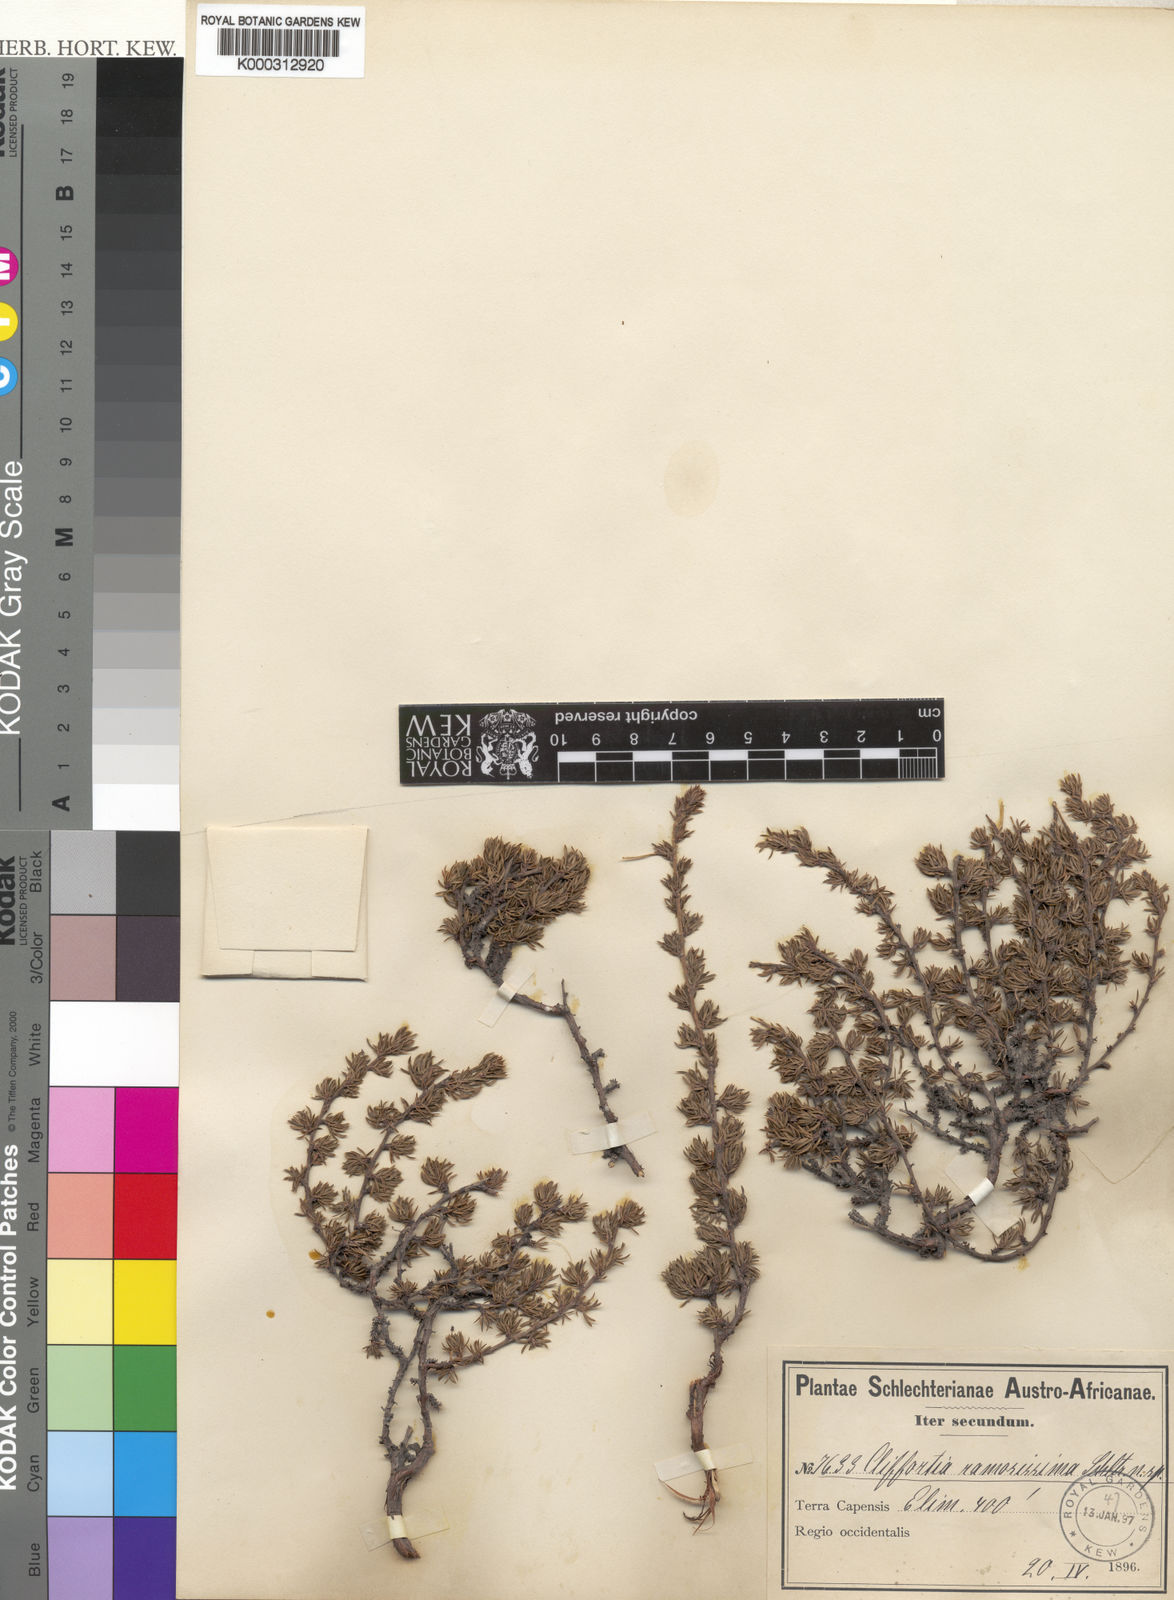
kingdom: Plantae
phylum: Tracheophyta
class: Magnoliopsida
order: Rosales
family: Rosaceae
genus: Cliffortia
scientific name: Cliffortia ramosissima
